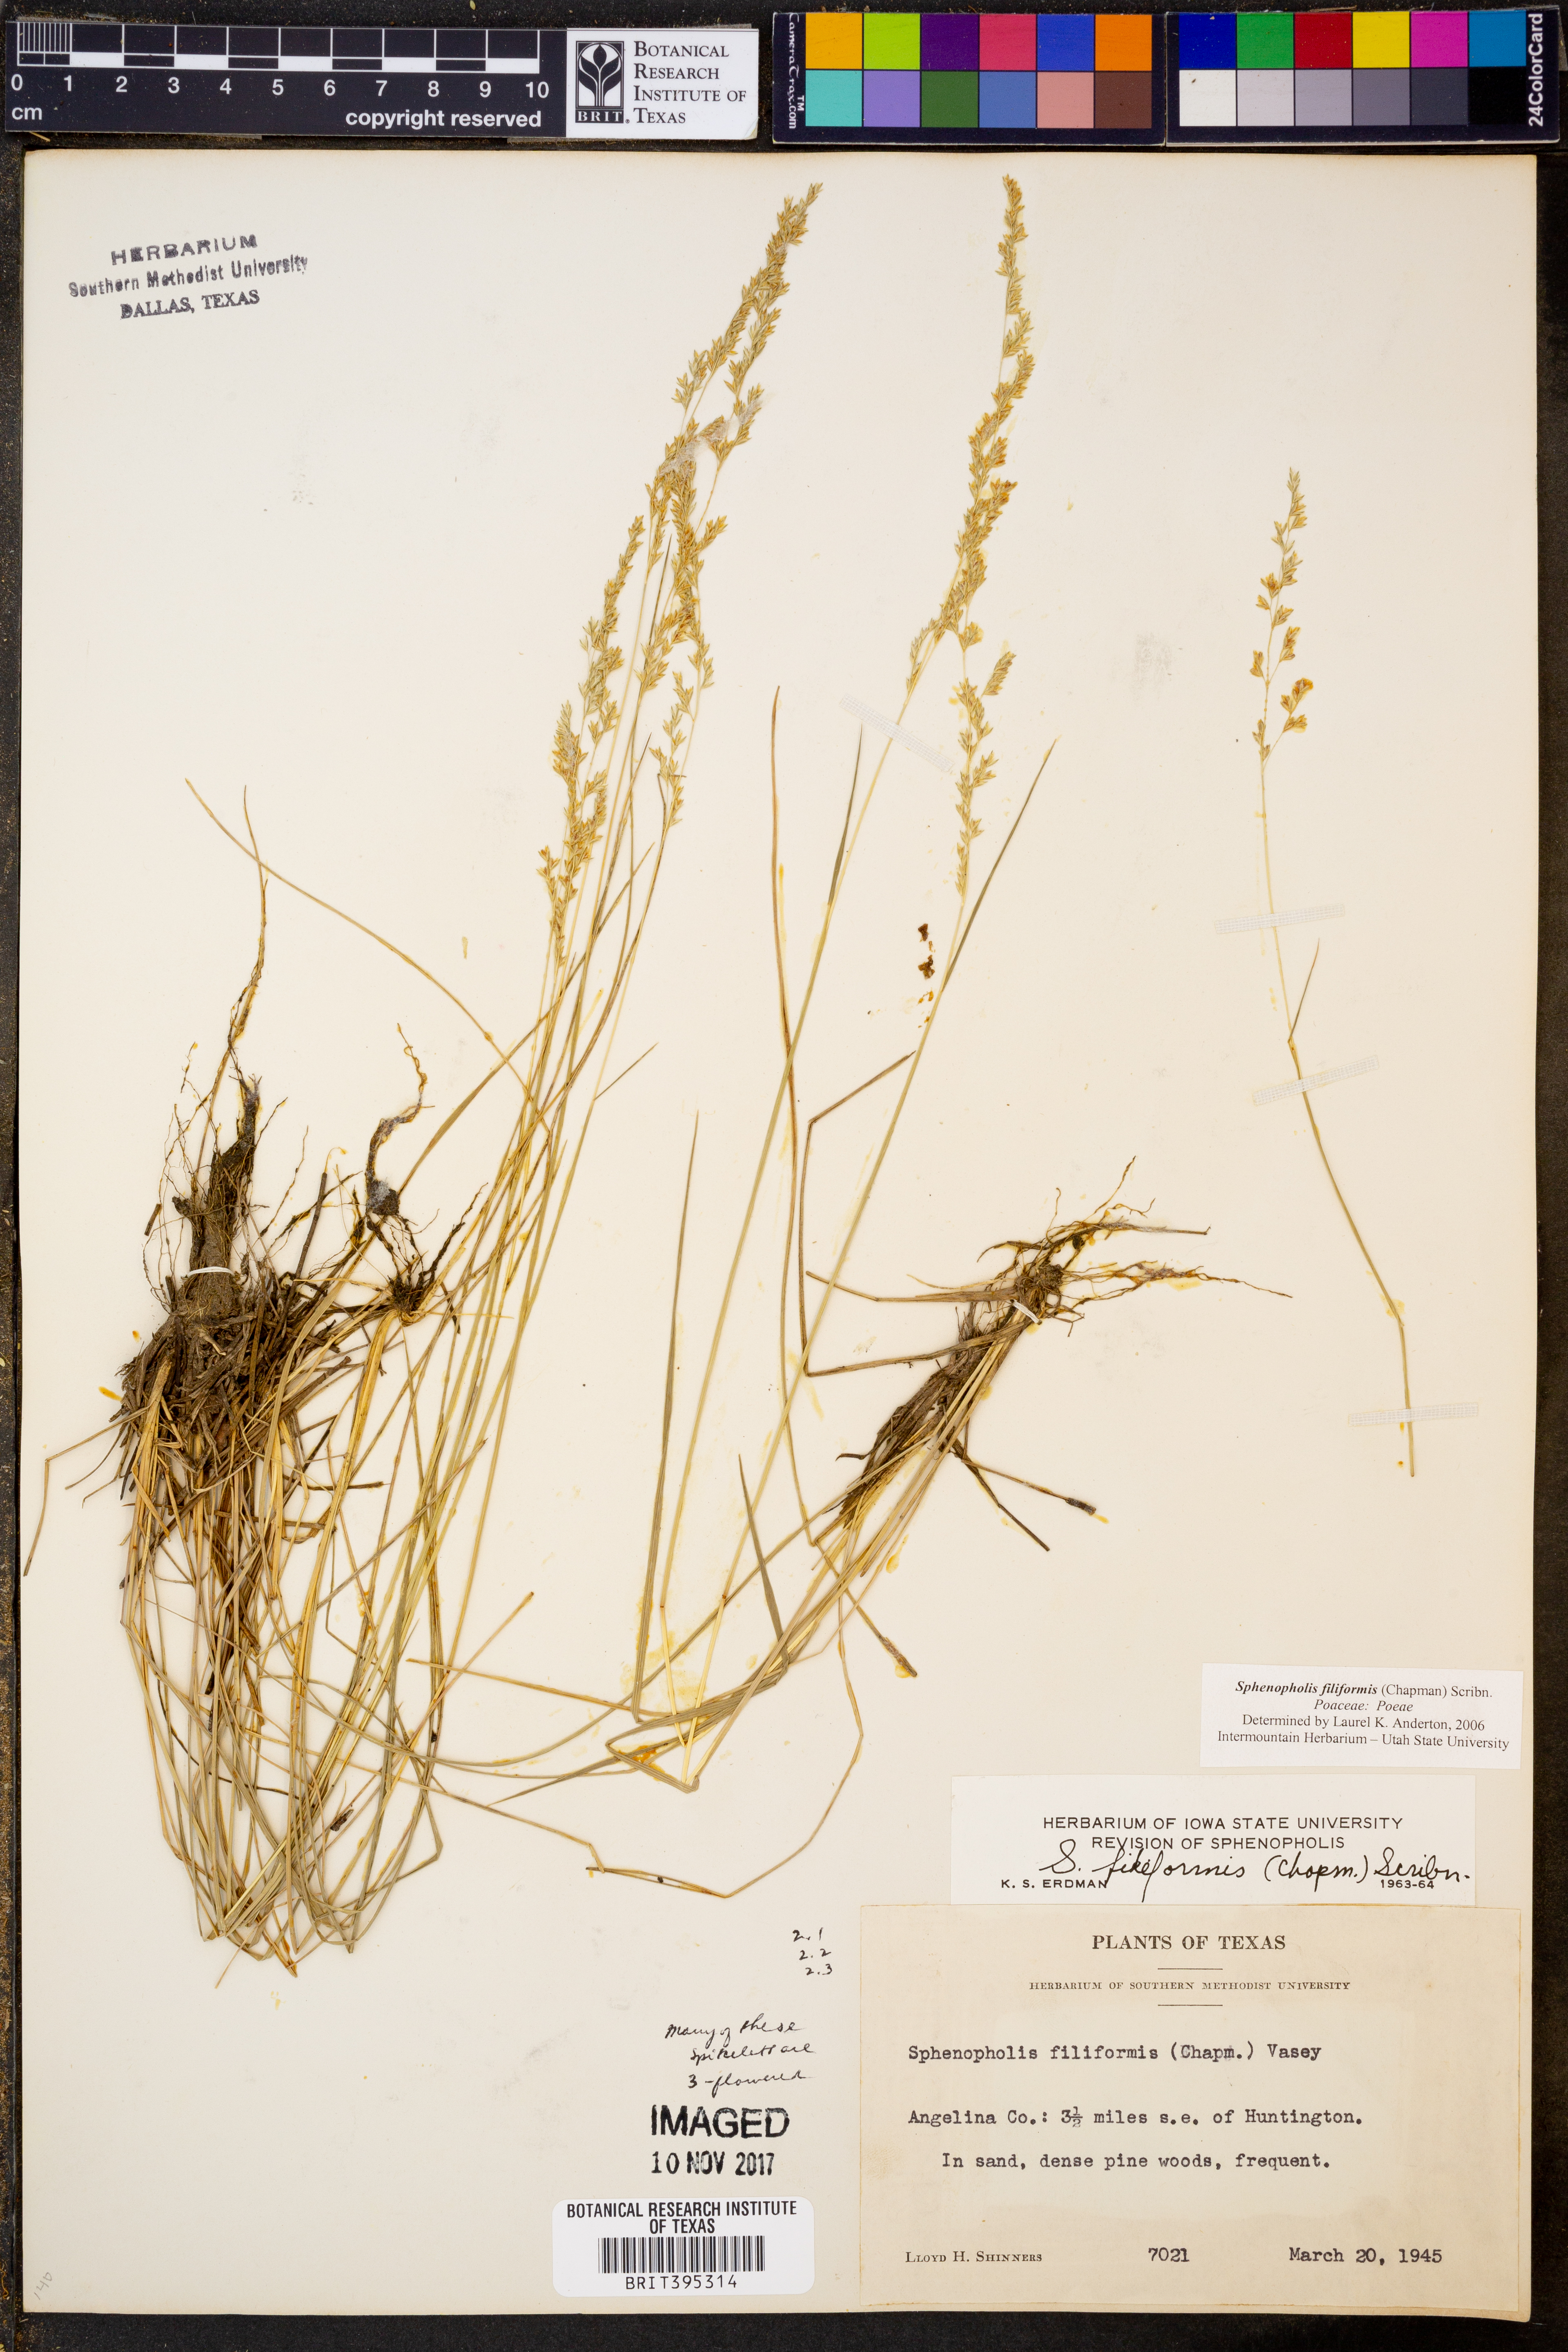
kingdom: Plantae
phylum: Tracheophyta
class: Liliopsida
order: Poales
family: Poaceae
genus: Sphenopholis
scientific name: Sphenopholis filiformis
